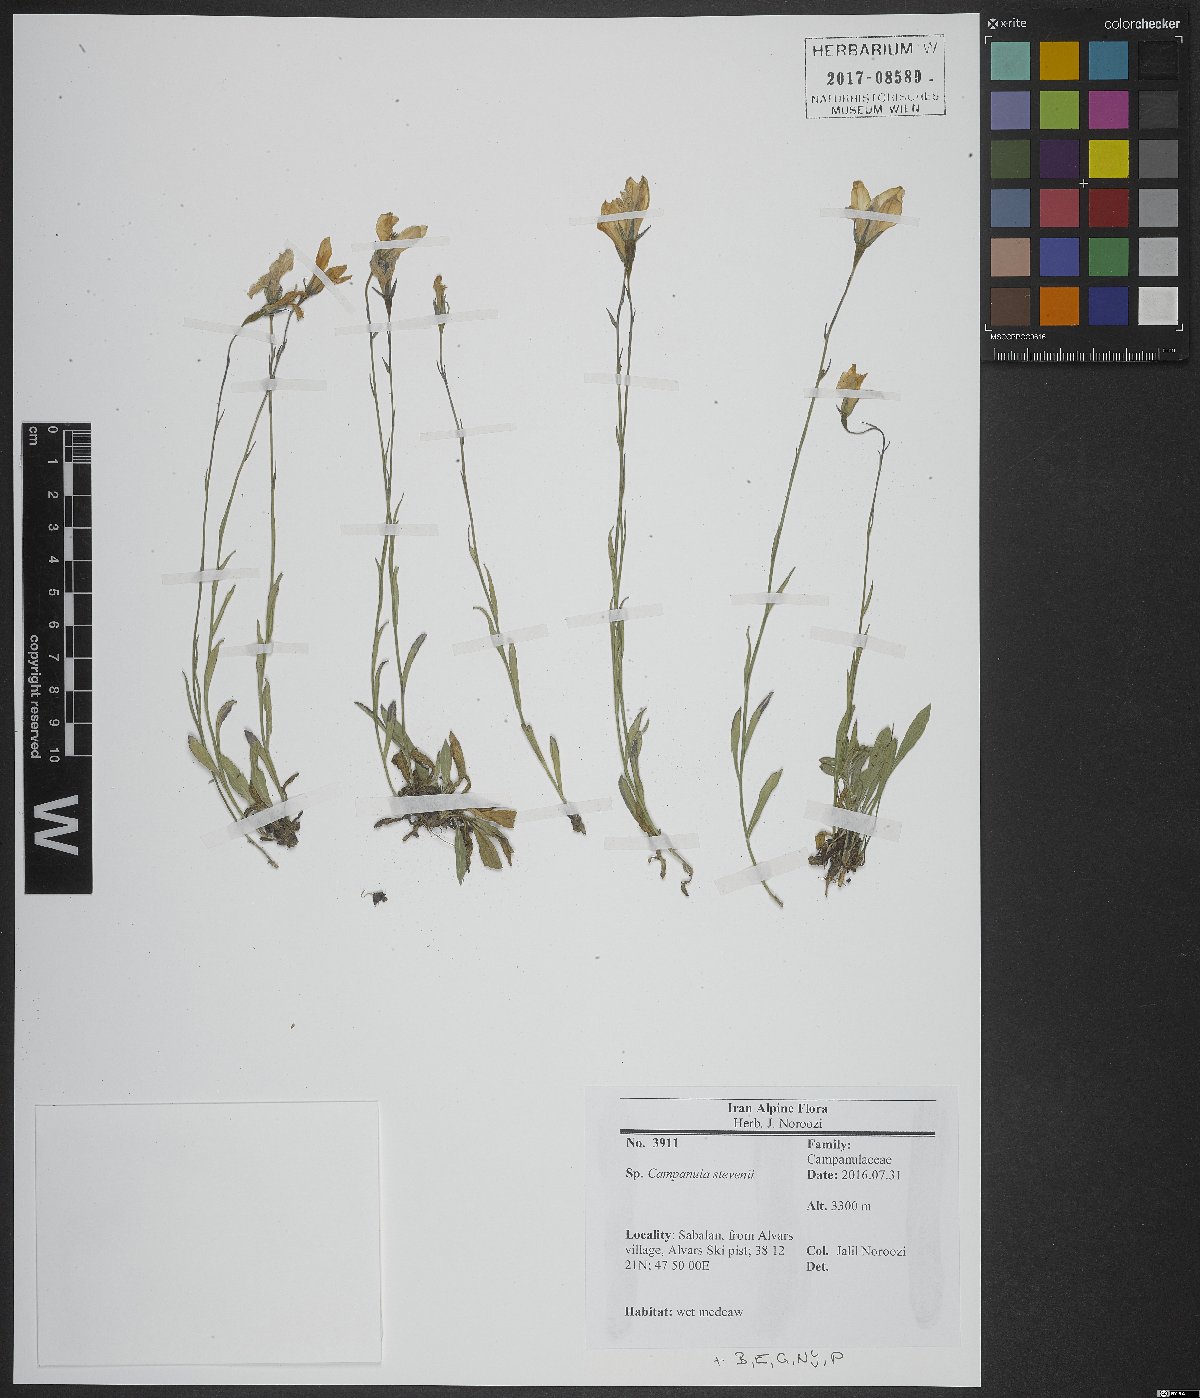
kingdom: Plantae
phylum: Tracheophyta
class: Magnoliopsida
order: Asterales
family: Campanulaceae
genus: Campanula
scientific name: Campanula stevenii
